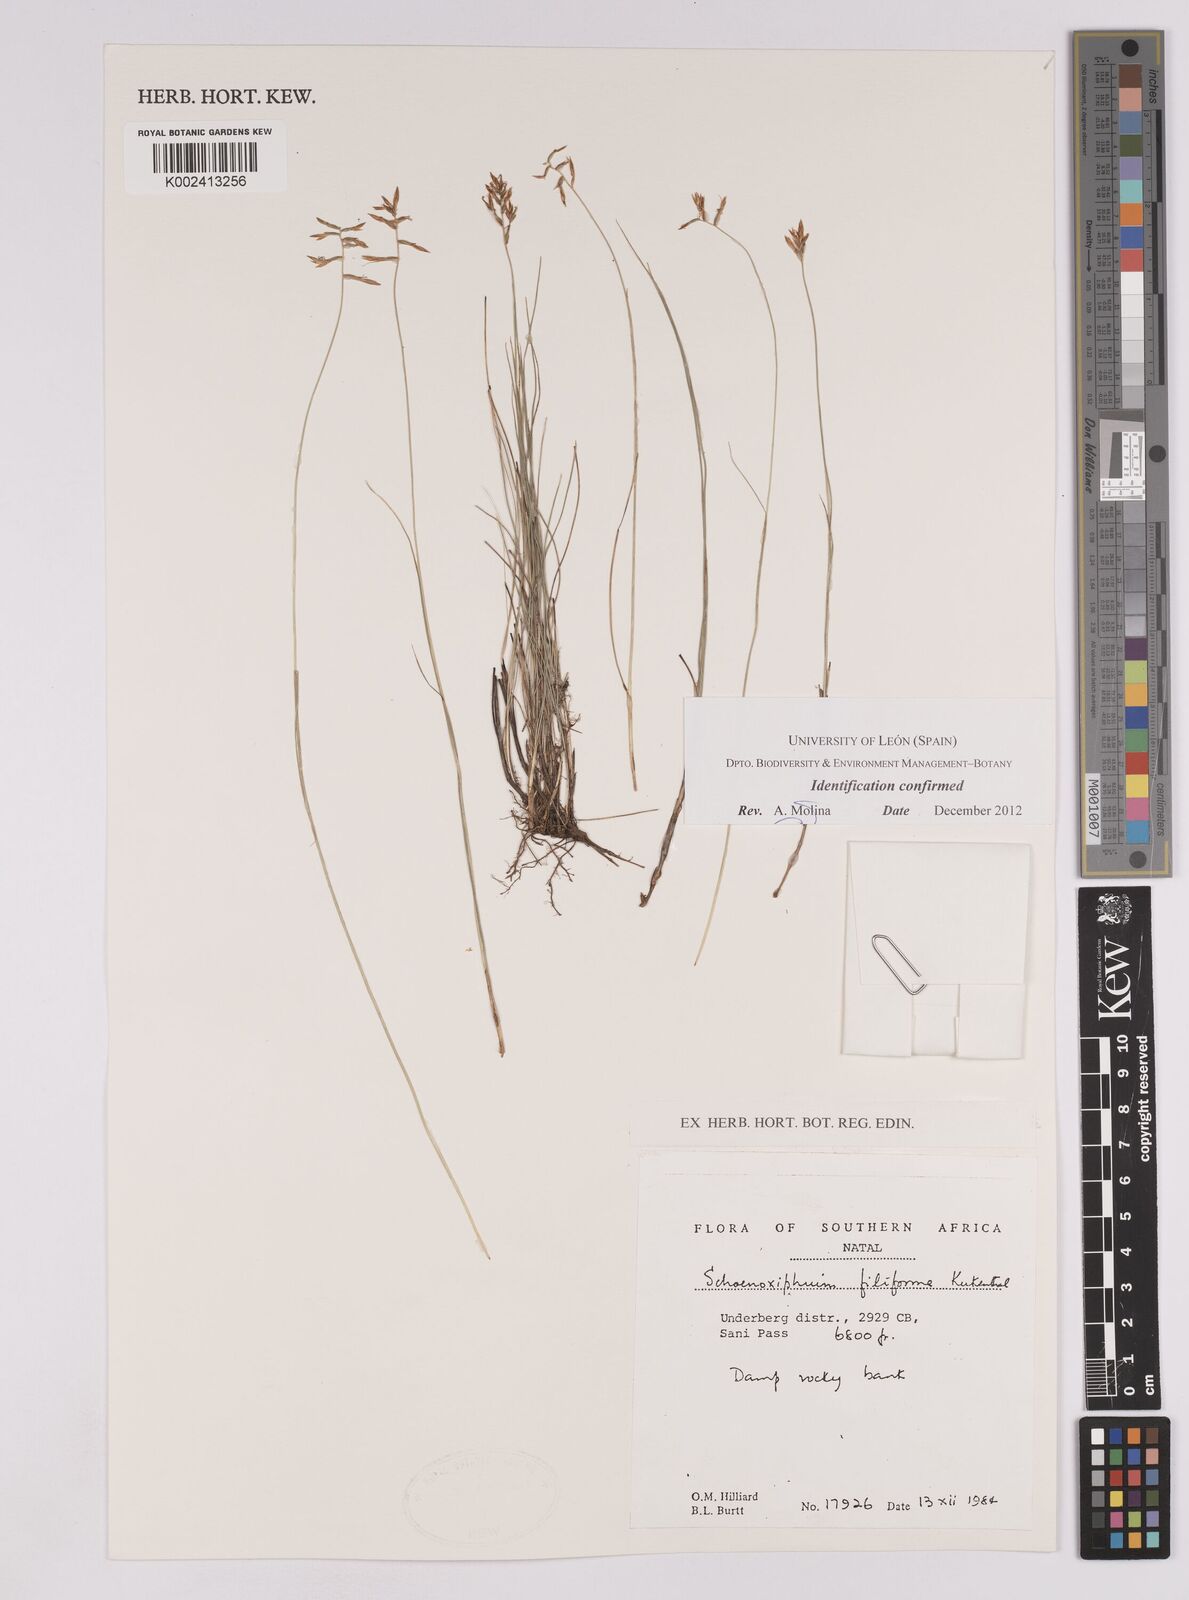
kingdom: Plantae
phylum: Tracheophyta
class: Liliopsida
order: Poales
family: Cyperaceae
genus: Carex
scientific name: Carex killickii
